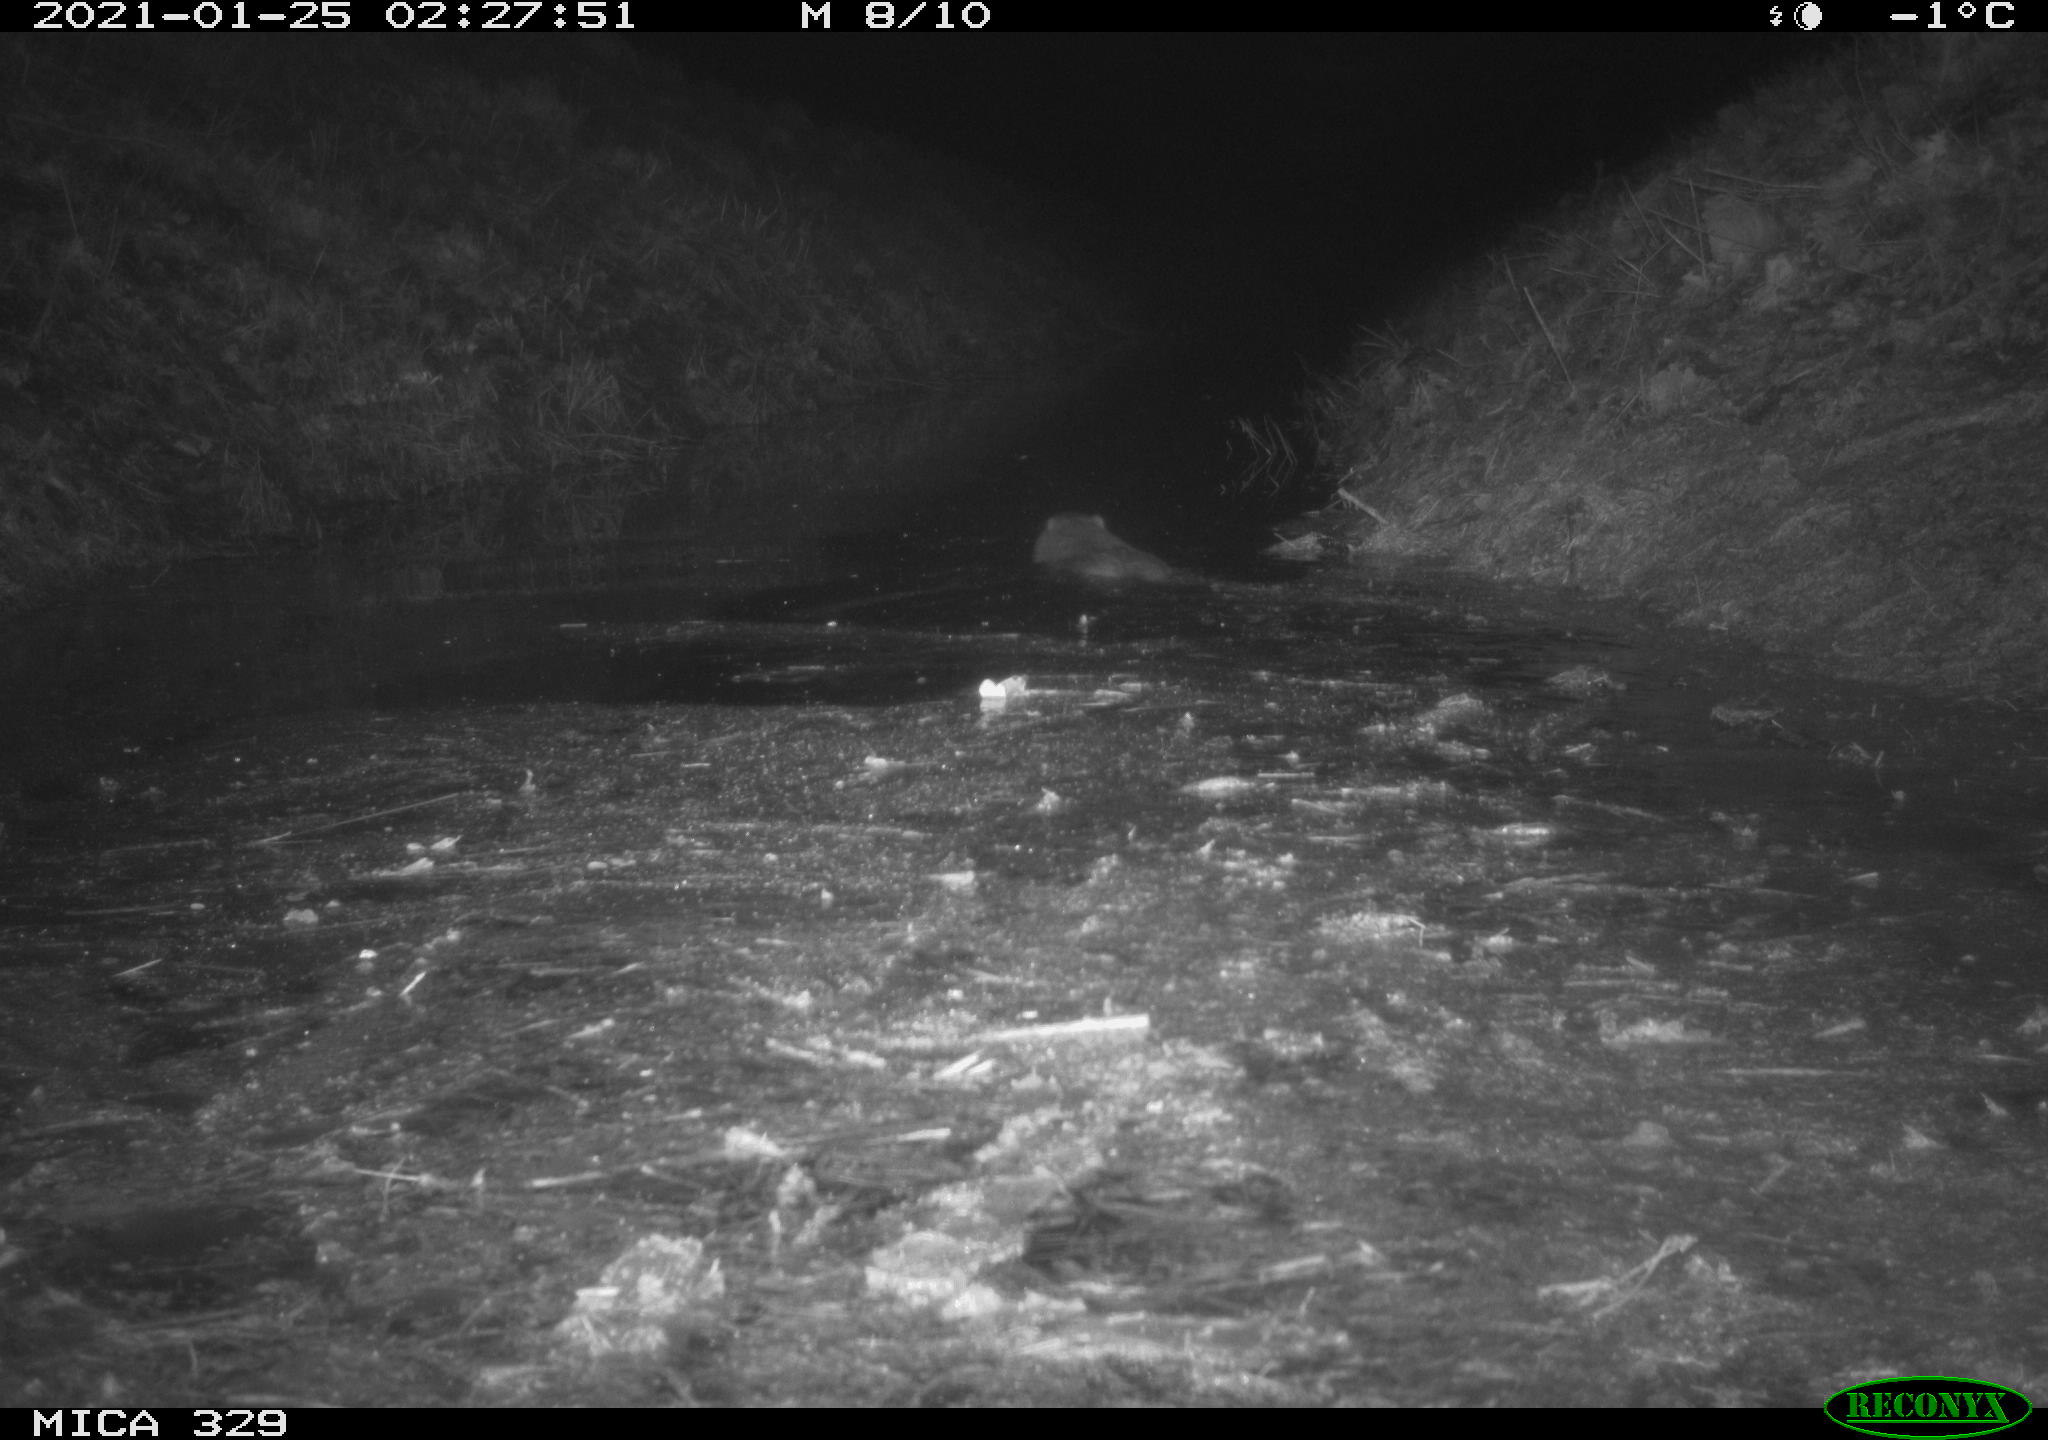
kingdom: Animalia
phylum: Chordata
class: Mammalia
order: Rodentia
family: Myocastoridae
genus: Myocastor
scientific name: Myocastor coypus
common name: Coypu
